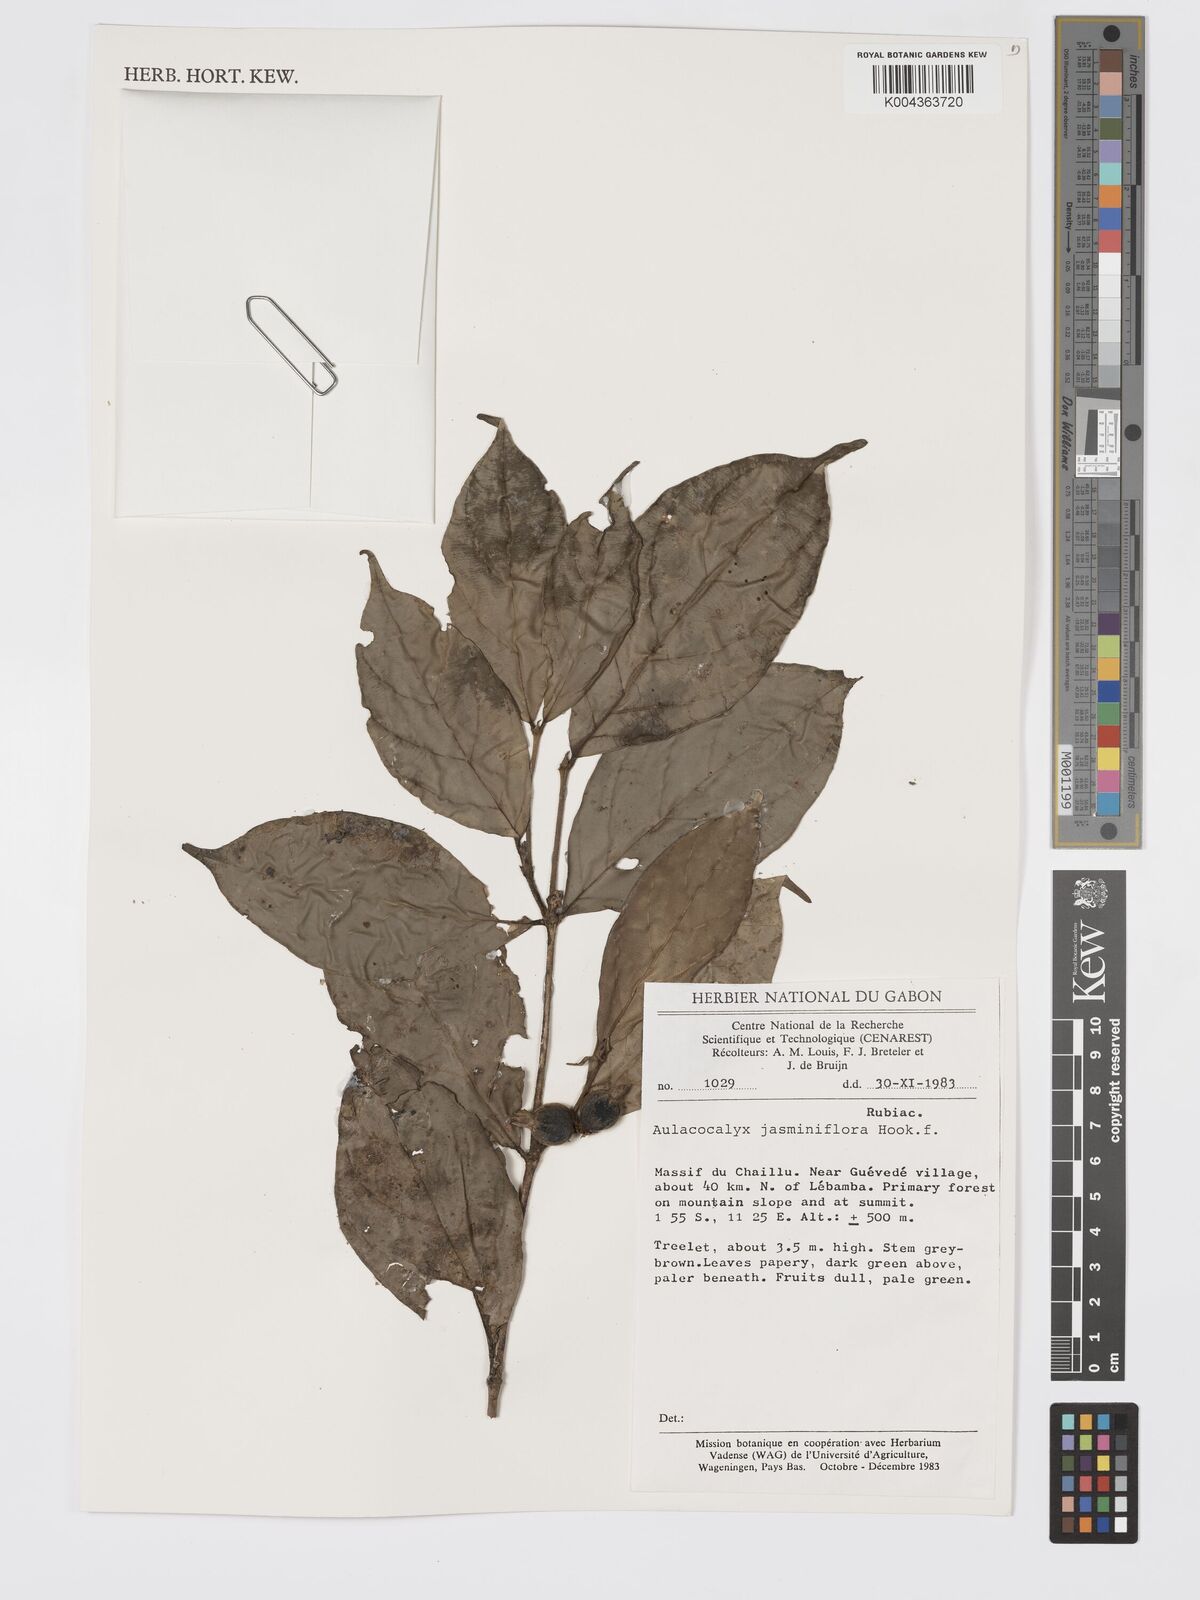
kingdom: Plantae
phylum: Tracheophyta
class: Magnoliopsida
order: Gentianales
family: Rubiaceae
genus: Aulacocalyx
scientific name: Aulacocalyx jasminiflora
